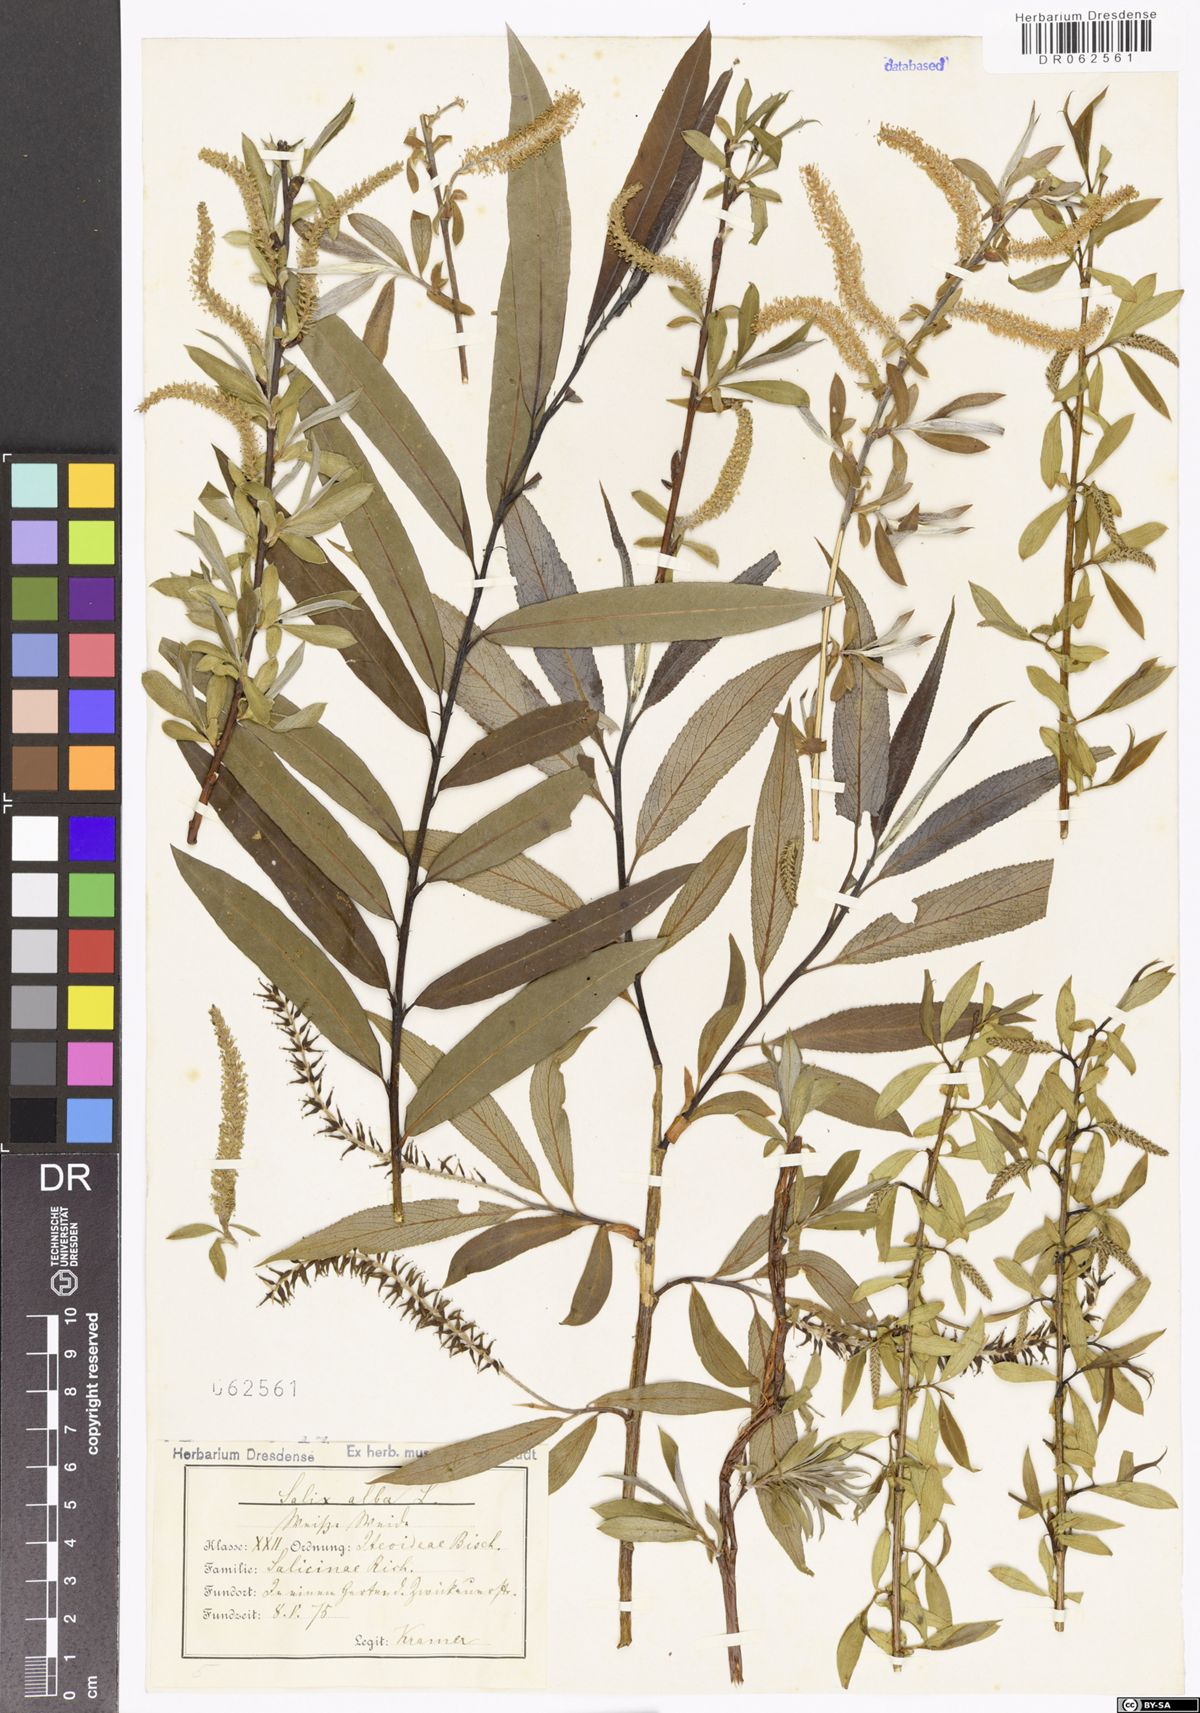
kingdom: Plantae
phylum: Tracheophyta
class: Magnoliopsida
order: Malpighiales
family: Salicaceae
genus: Salix
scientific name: Salix alba
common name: White willow
